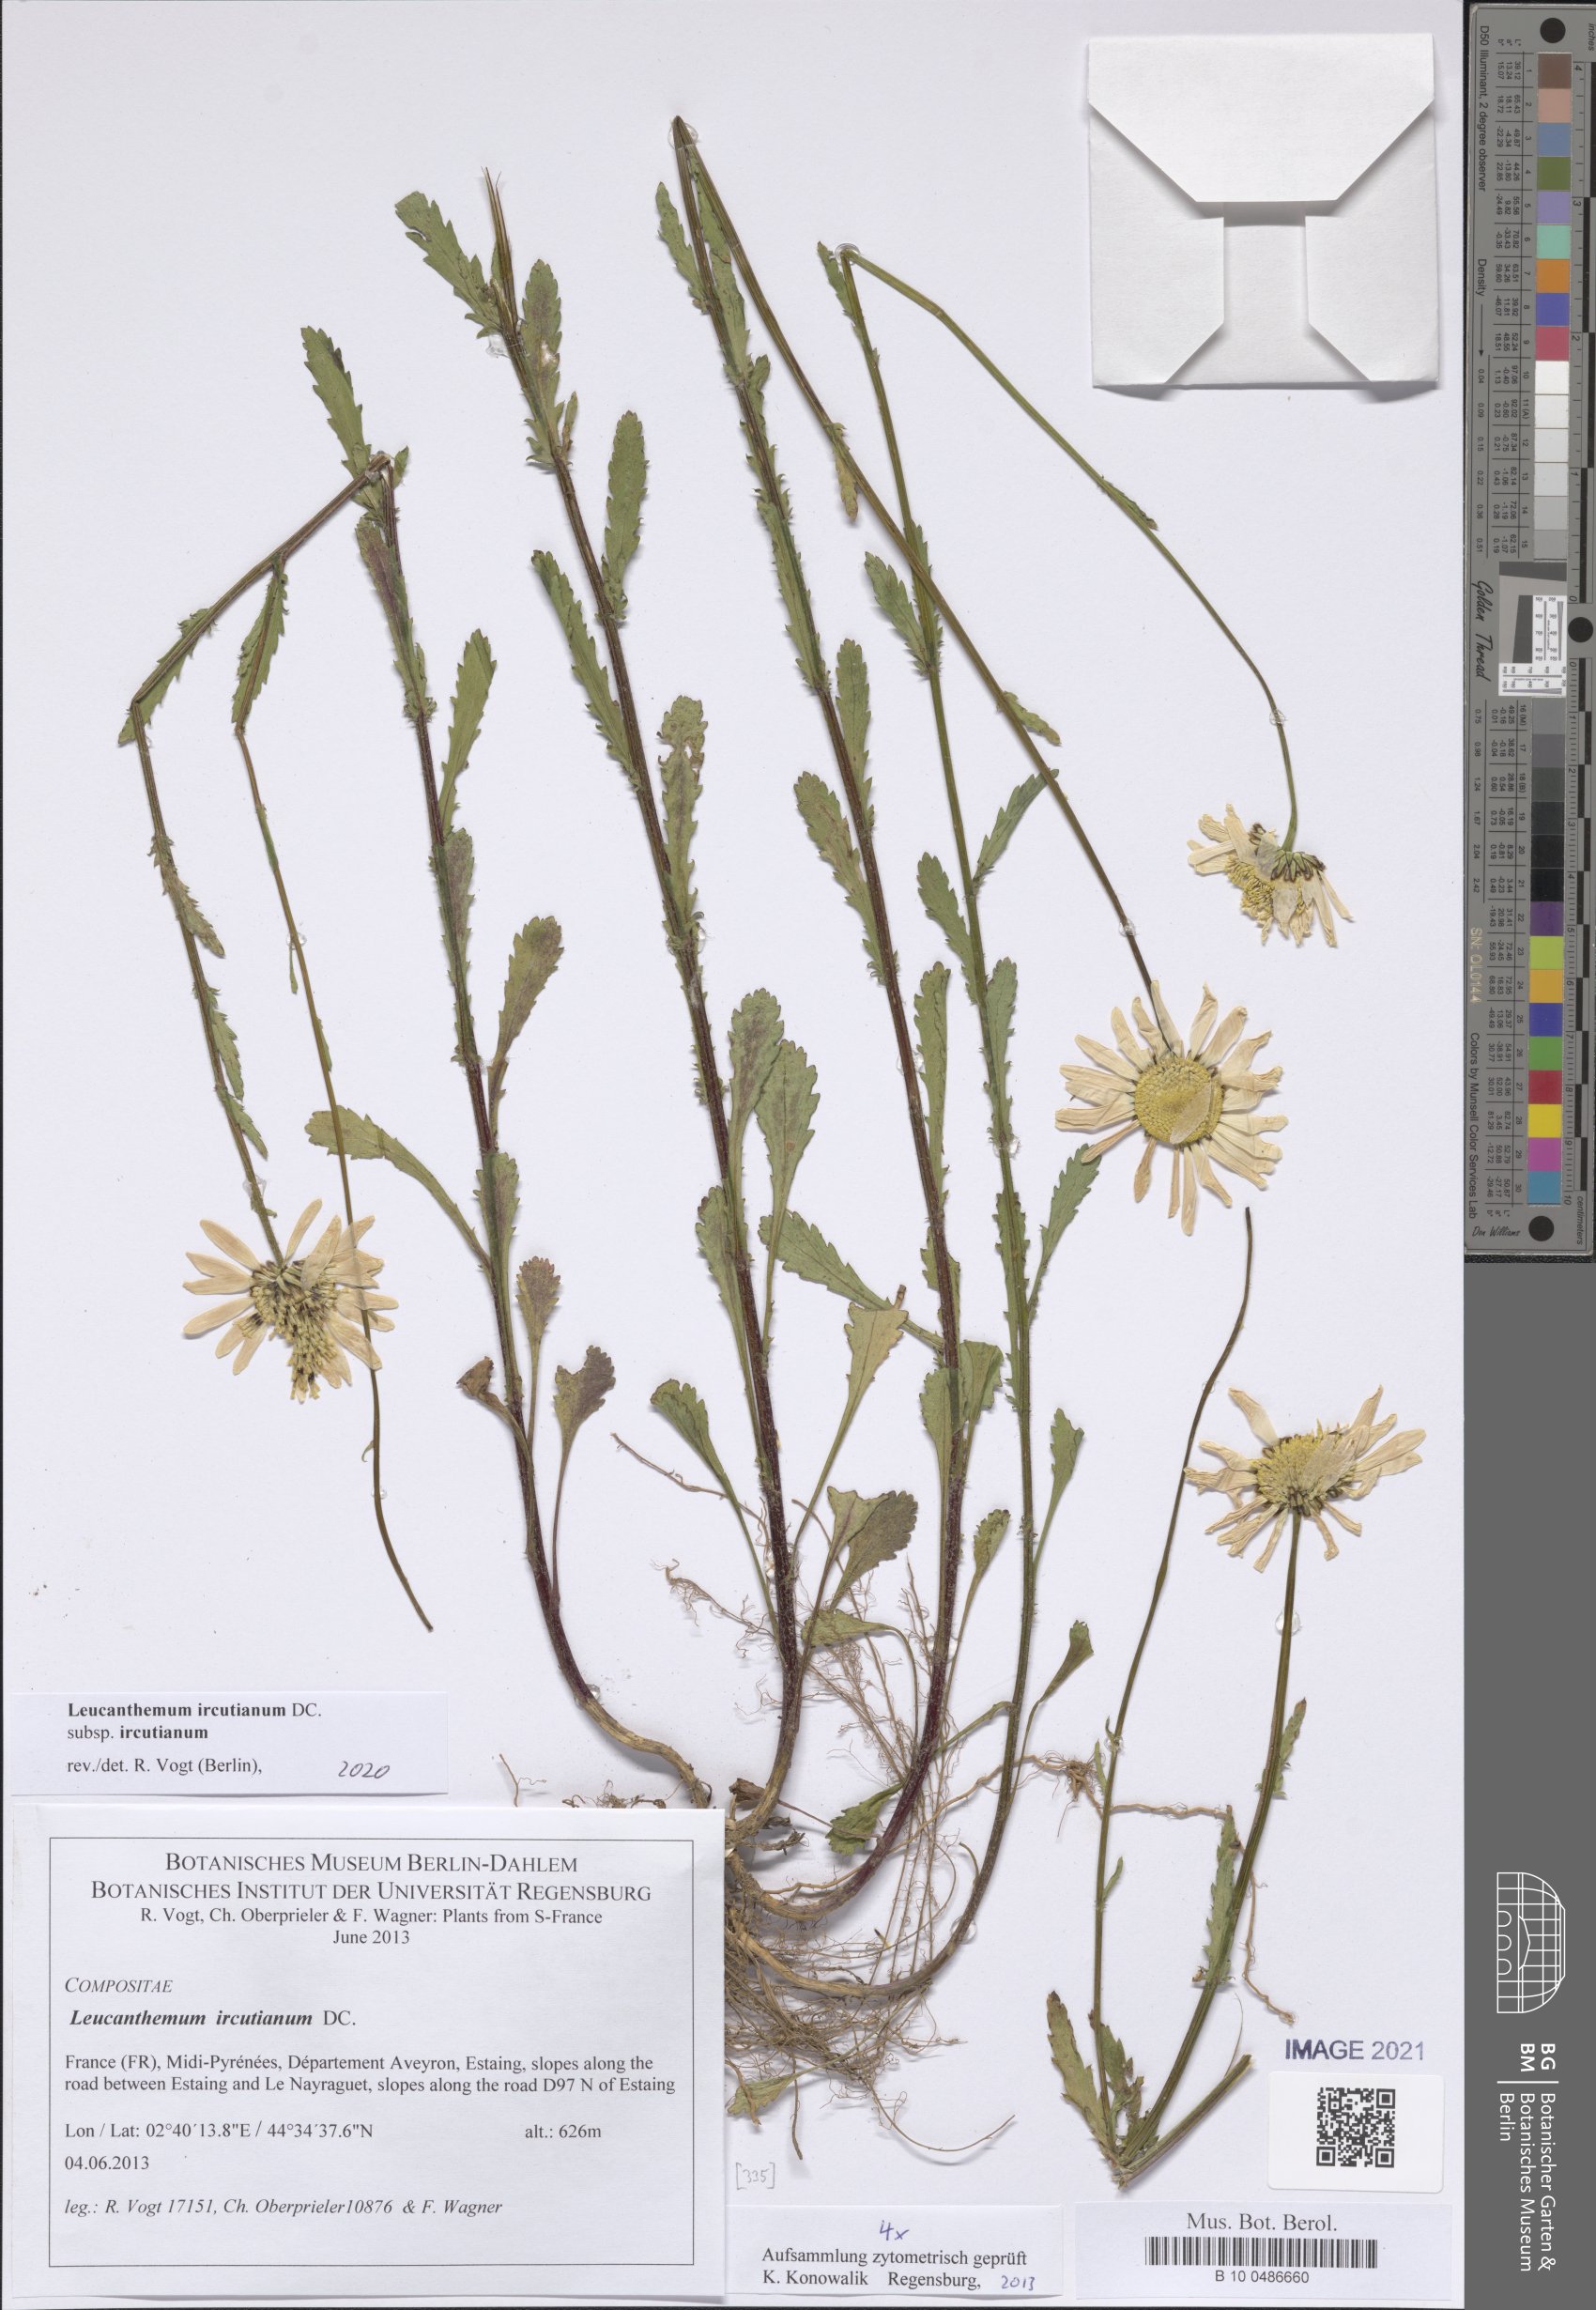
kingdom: Plantae
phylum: Tracheophyta
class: Magnoliopsida
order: Asterales
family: Asteraceae
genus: Leucanthemum
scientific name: Leucanthemum ircutianum
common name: Daisy
